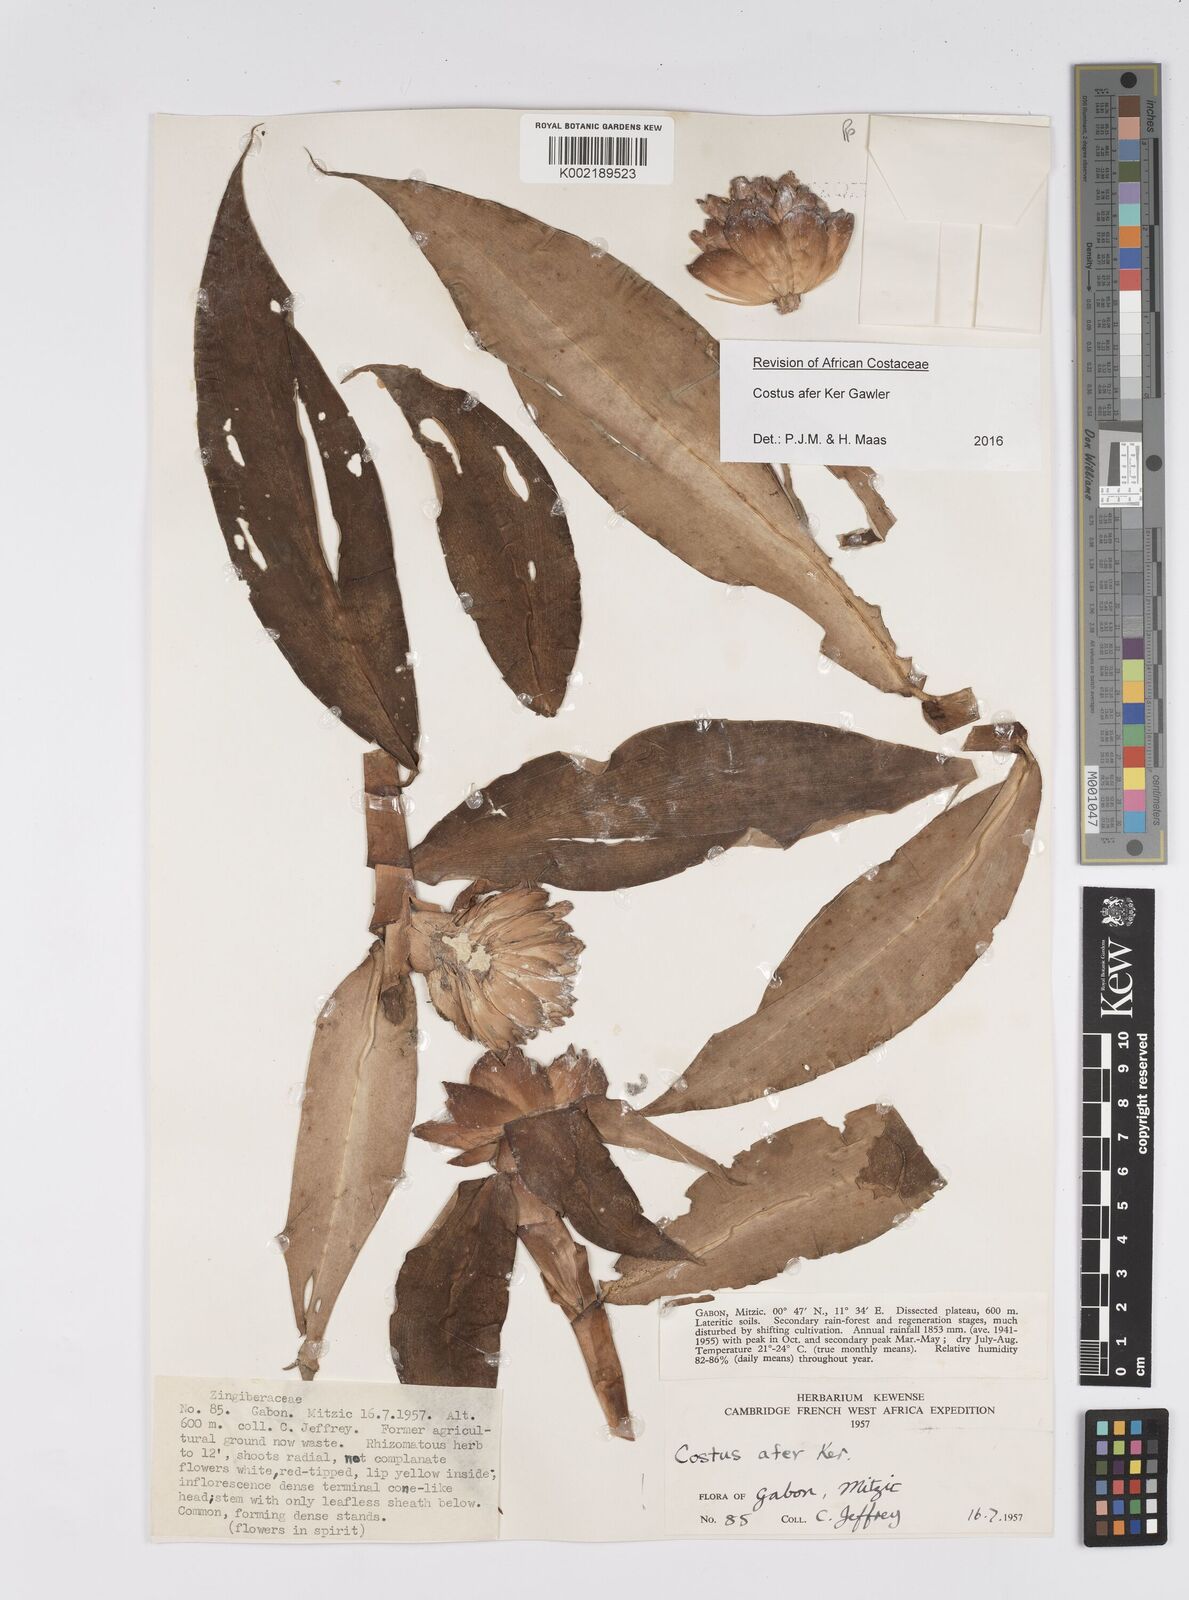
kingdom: Plantae
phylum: Tracheophyta
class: Liliopsida
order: Zingiberales
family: Costaceae
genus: Costus
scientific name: Costus afer
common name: Spiral-ginger
